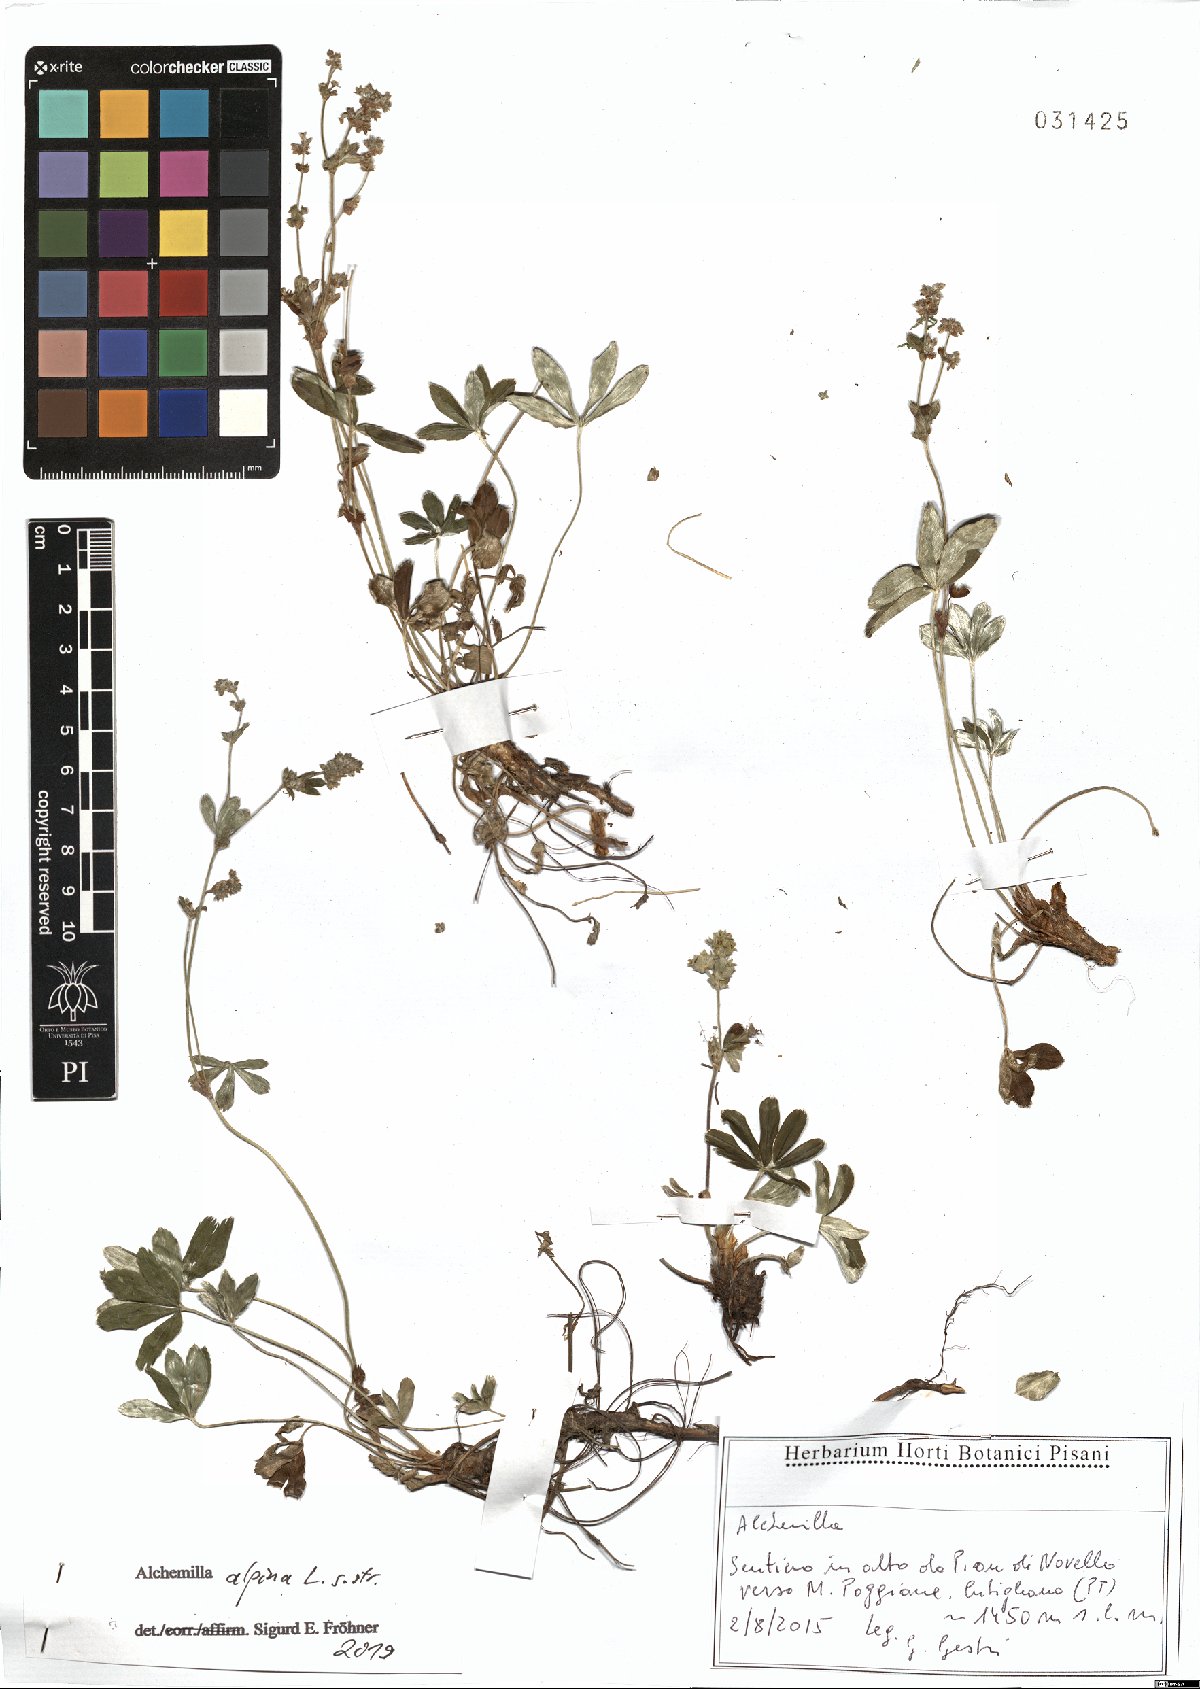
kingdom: Plantae
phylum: Tracheophyta
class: Magnoliopsida
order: Rosales
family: Rosaceae
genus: Alchemilla
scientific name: Alchemilla alpina
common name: Alpine lady's-mantle
